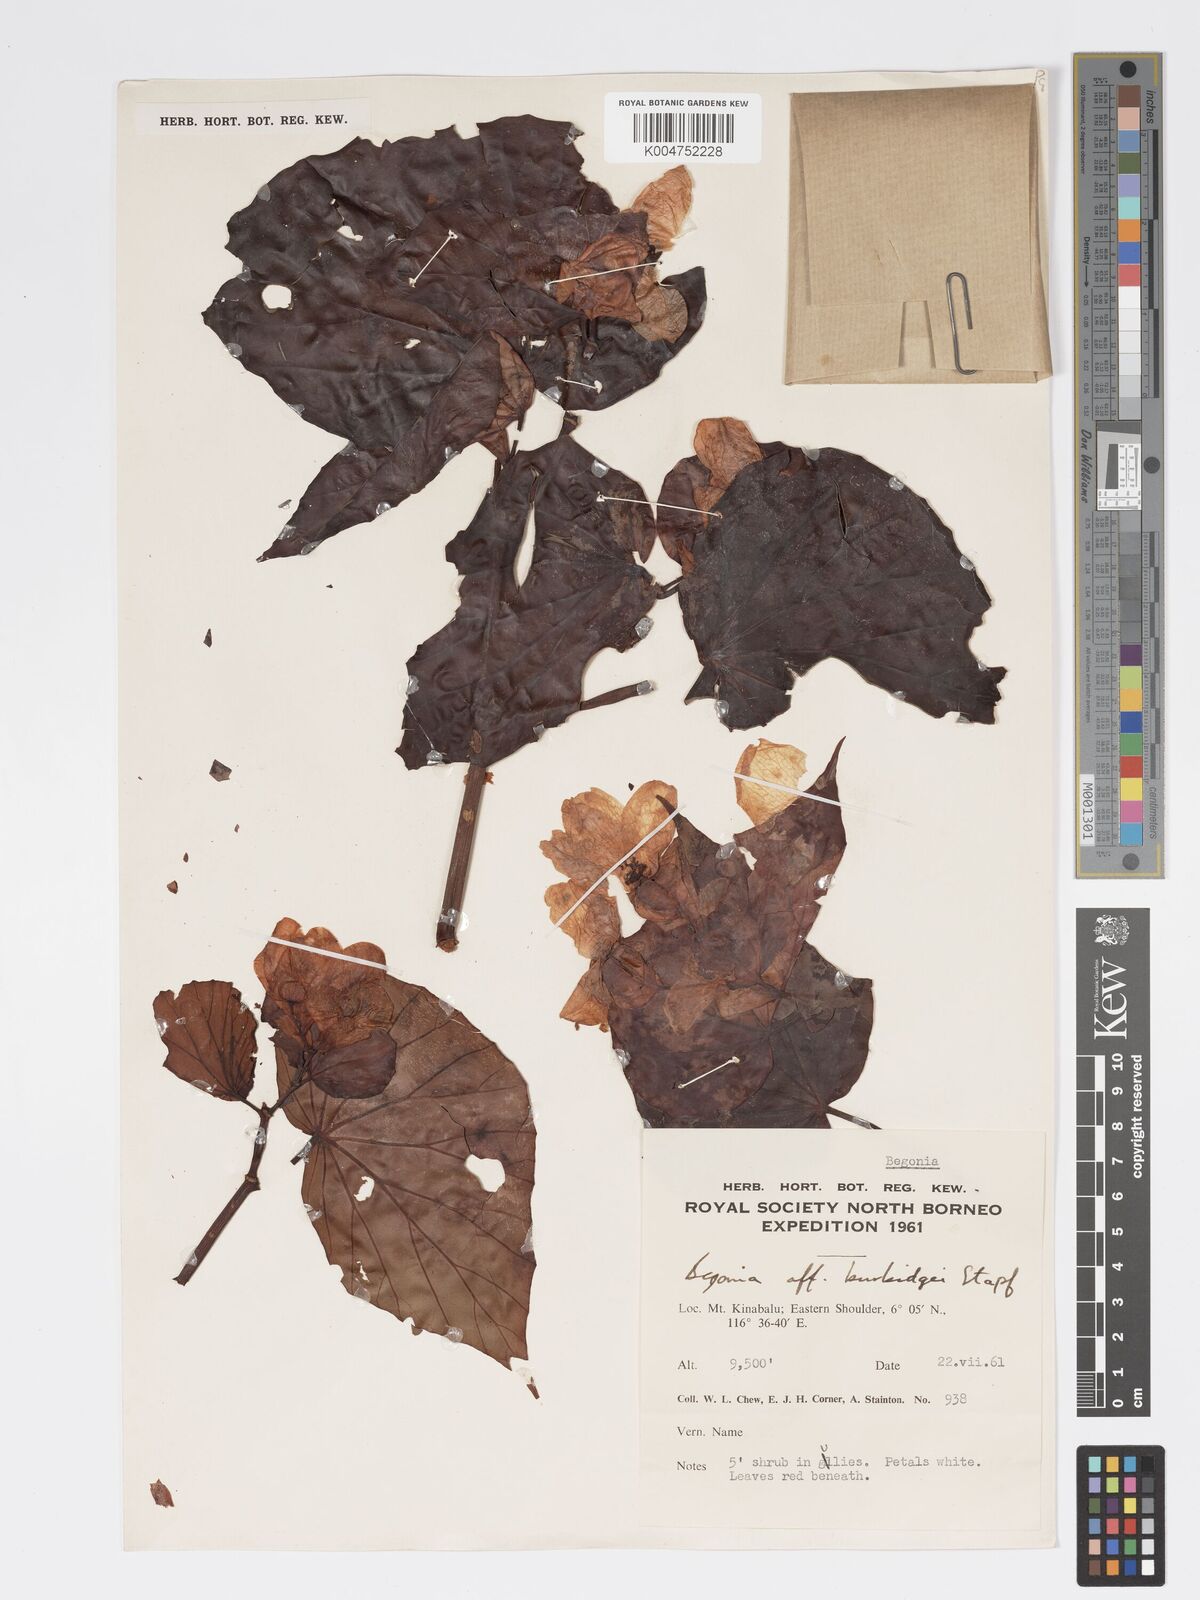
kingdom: Plantae
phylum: Tracheophyta
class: Magnoliopsida
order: Cucurbitales
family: Begoniaceae
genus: Begonia
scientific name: Begonia burbidgei
